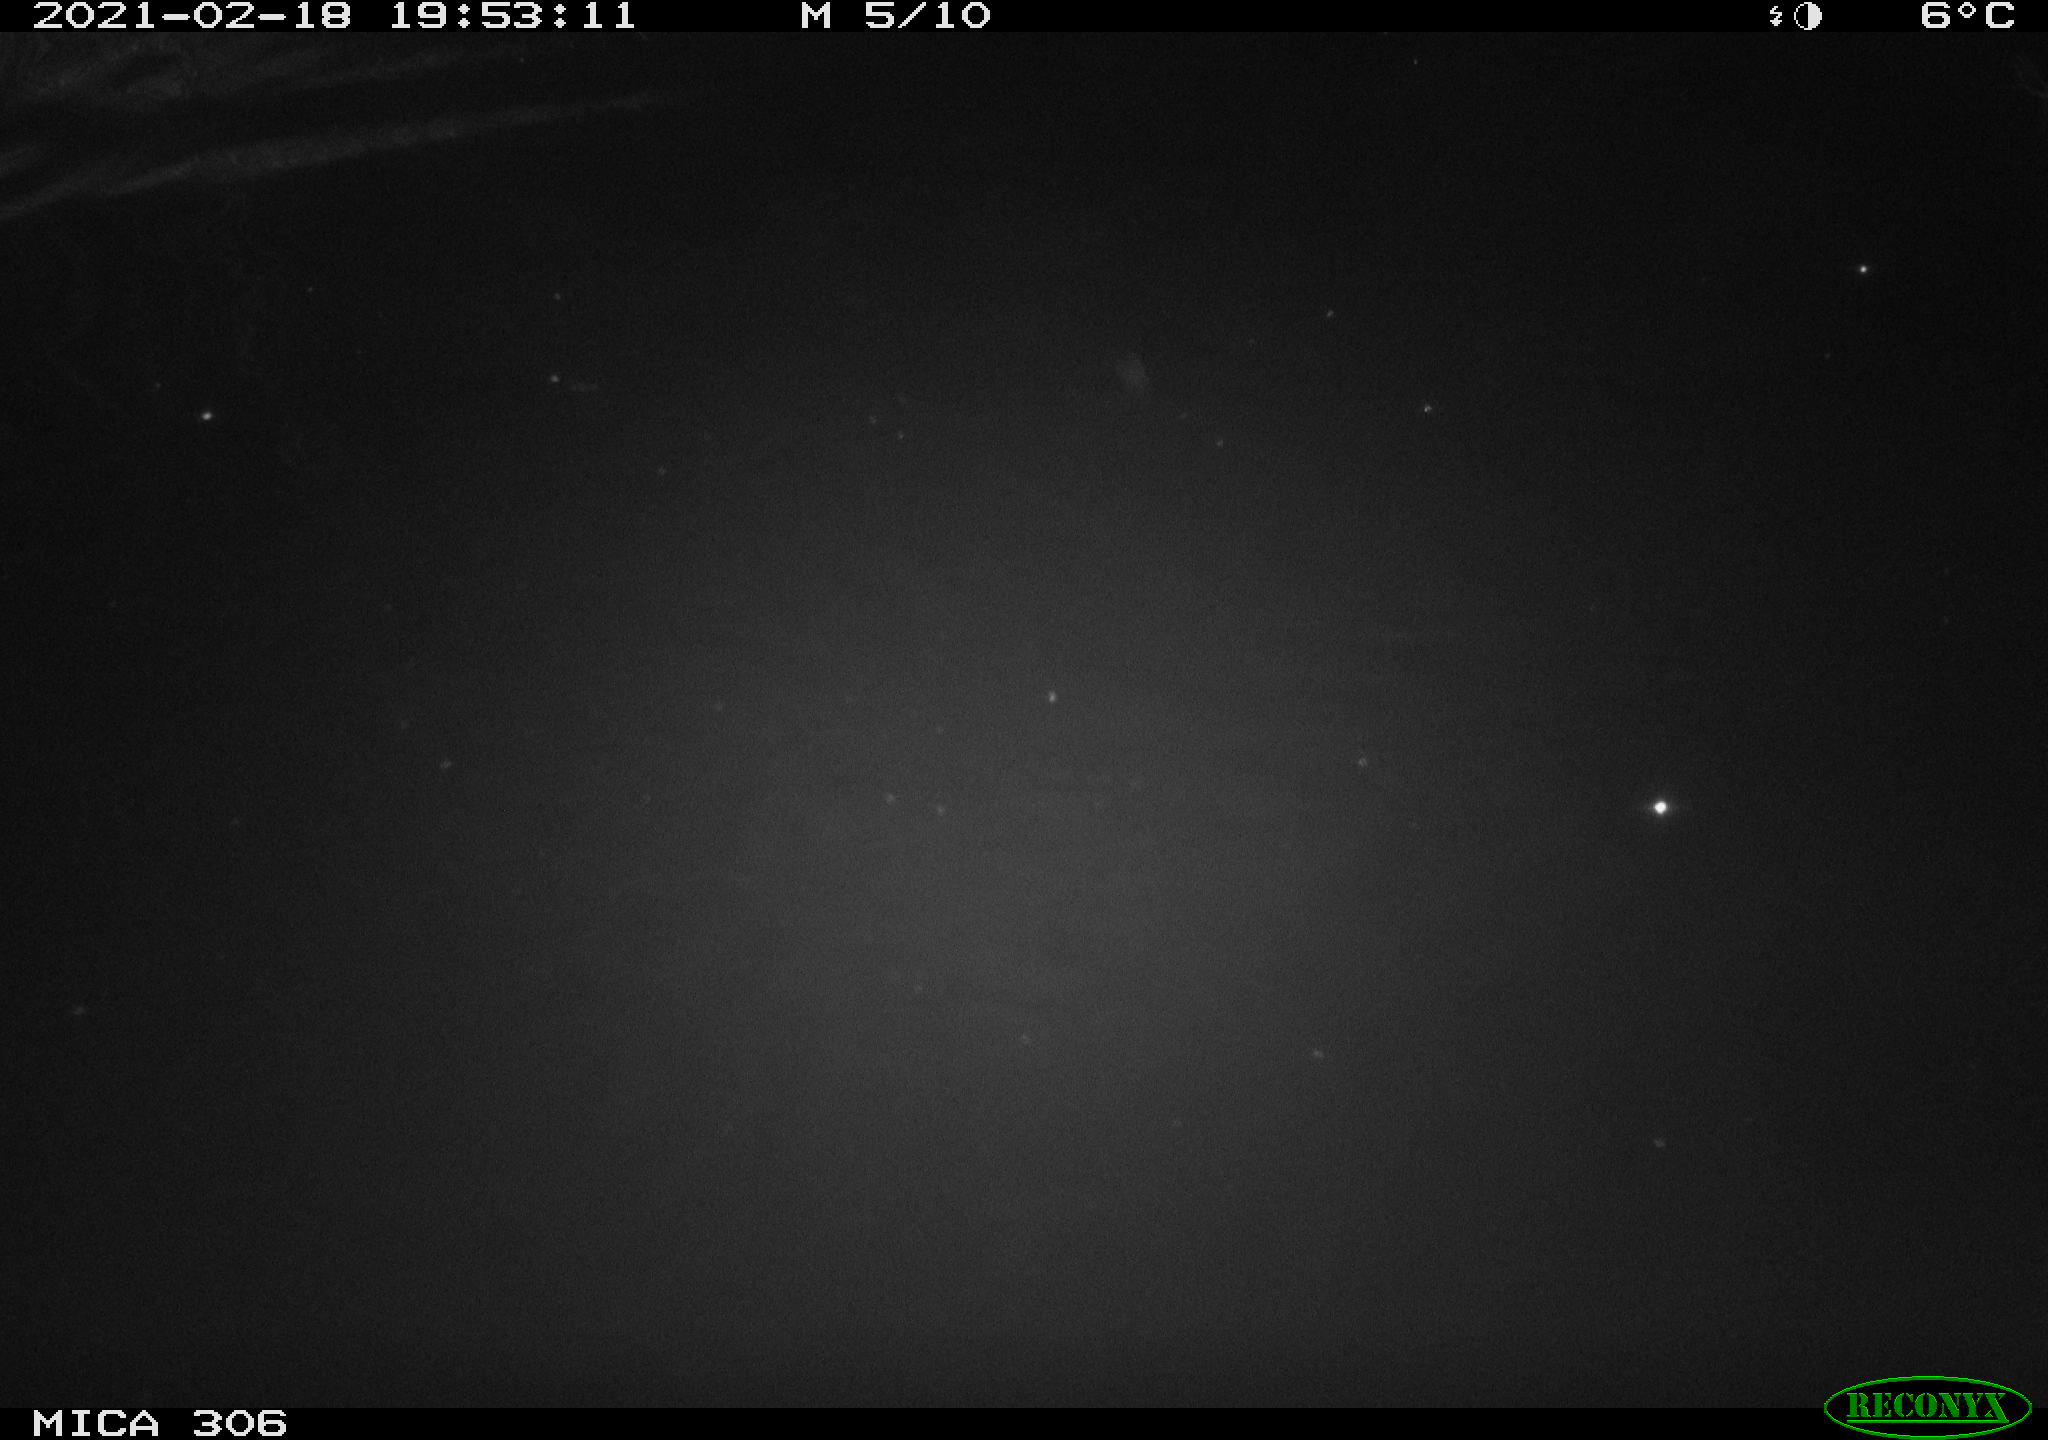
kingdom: Animalia
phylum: Chordata
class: Mammalia
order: Rodentia
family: Cricetidae
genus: Ondatra
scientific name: Ondatra zibethicus
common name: Muskrat
